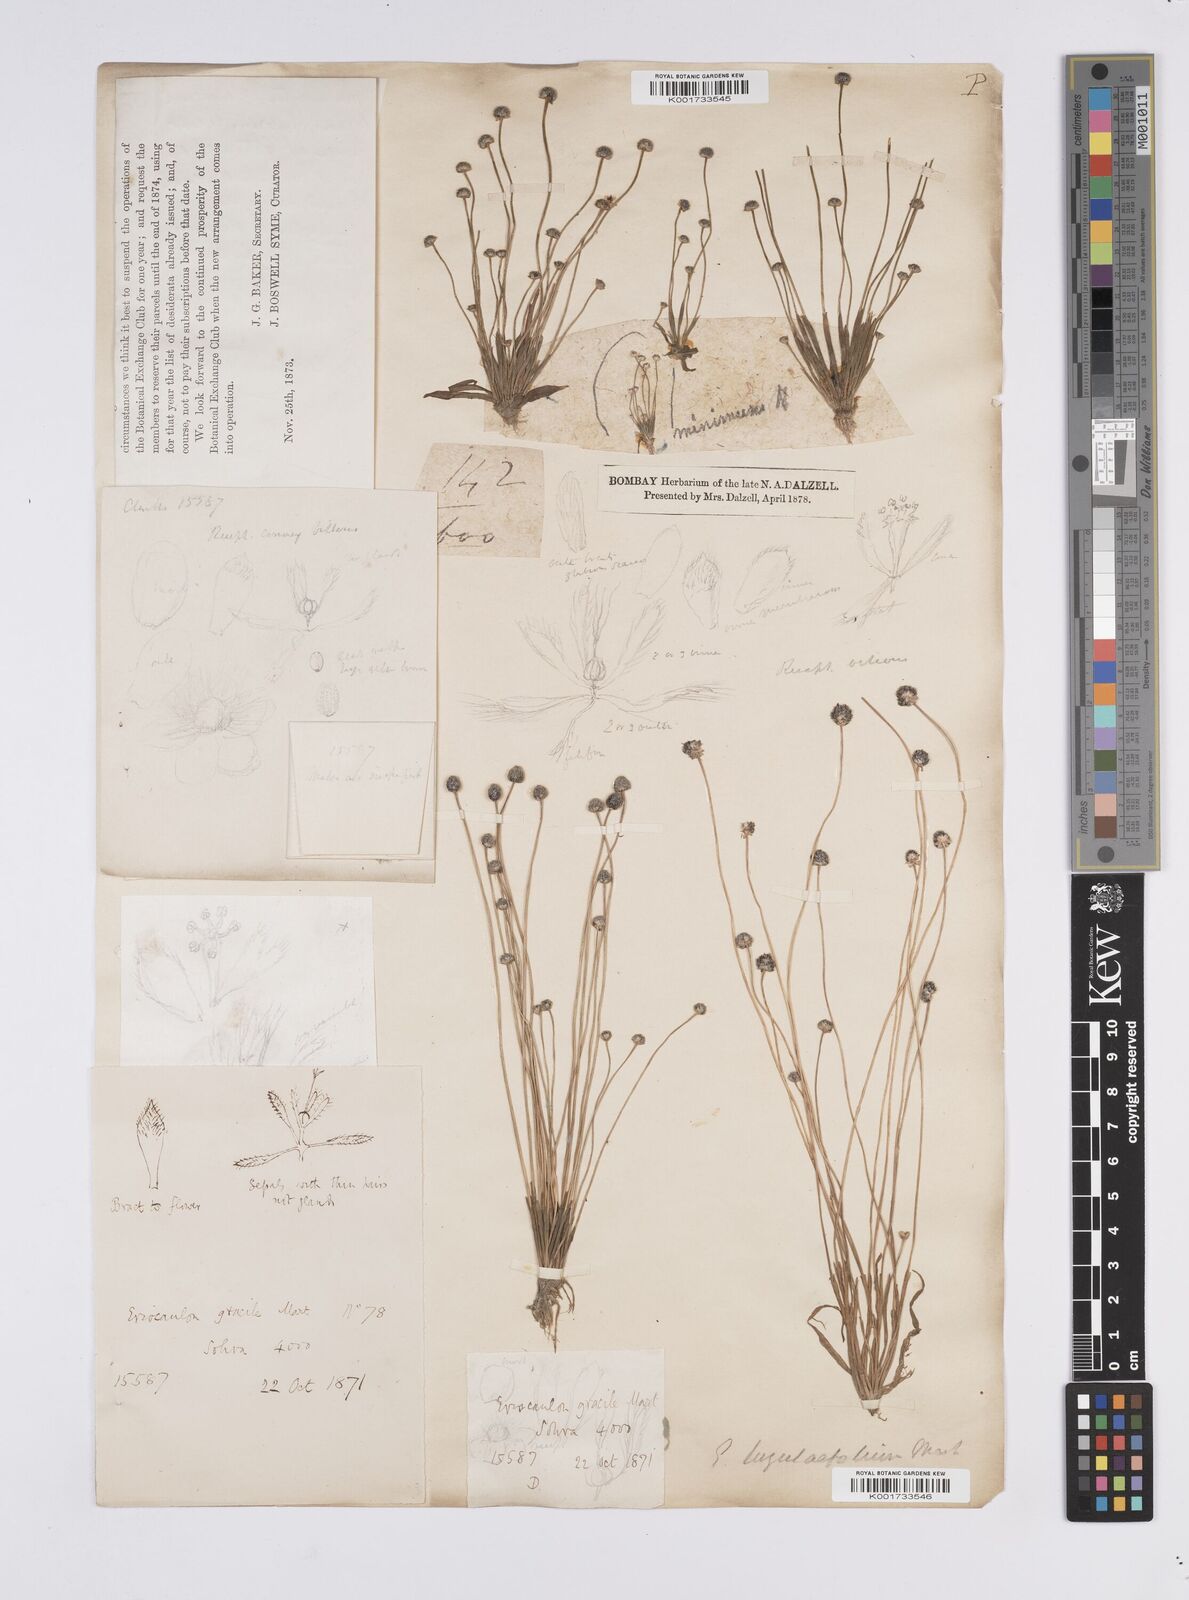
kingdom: Plantae
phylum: Tracheophyta
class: Liliopsida
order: Poales
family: Eriocaulaceae
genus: Eriocaulon
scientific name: Eriocaulon nepalense
